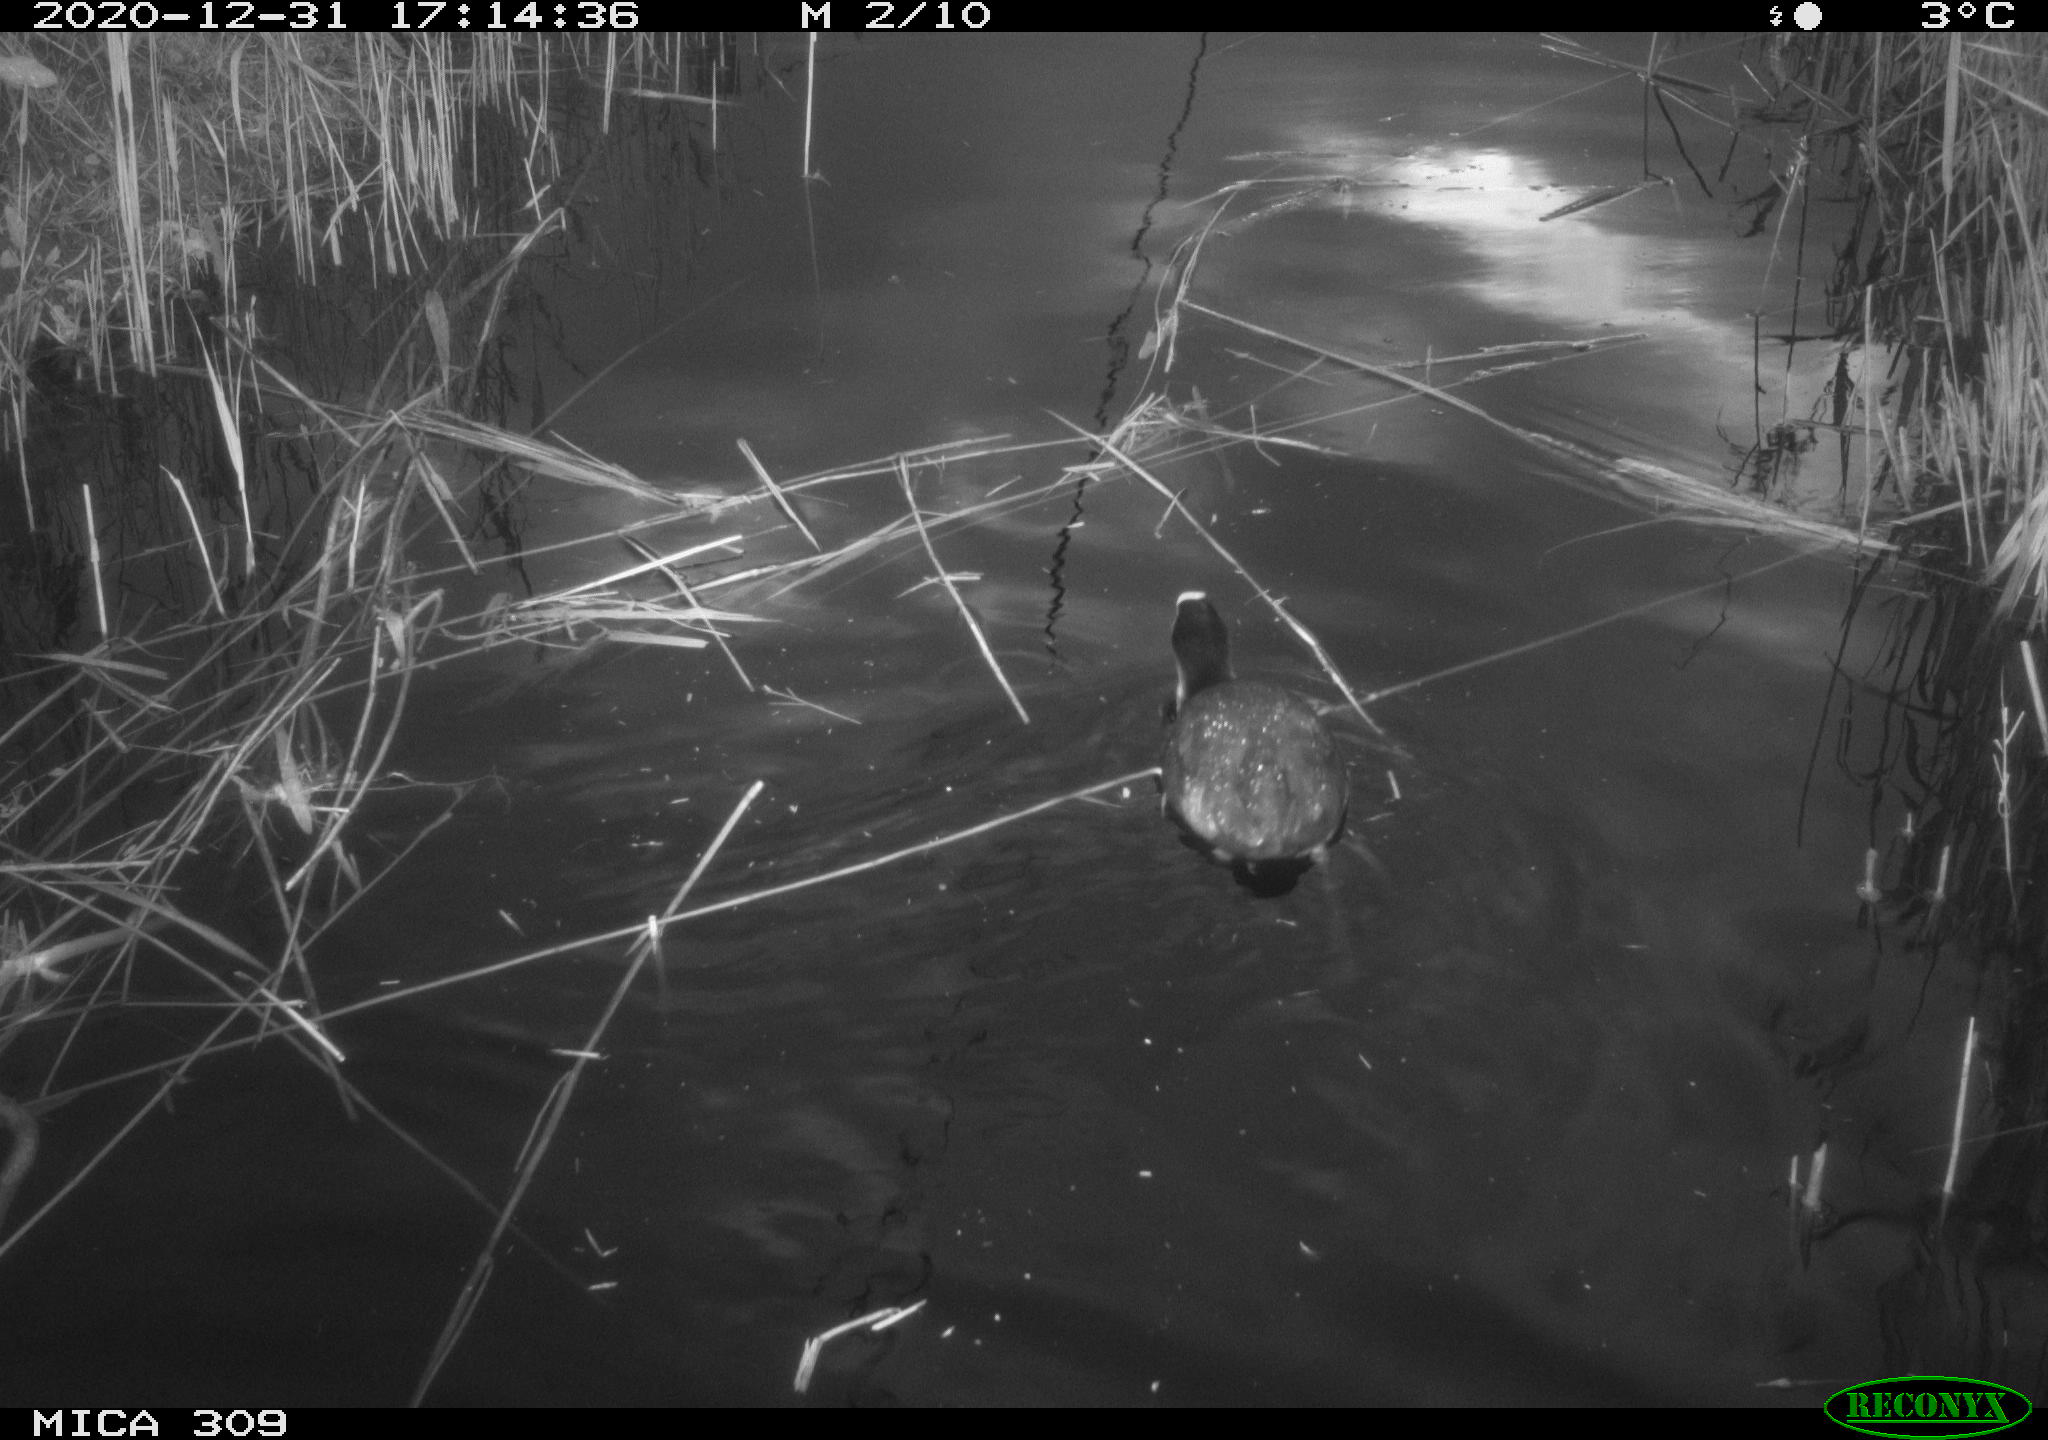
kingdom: Animalia
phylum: Chordata
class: Aves
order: Gruiformes
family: Rallidae
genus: Gallinula
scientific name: Gallinula chloropus
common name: Common moorhen
